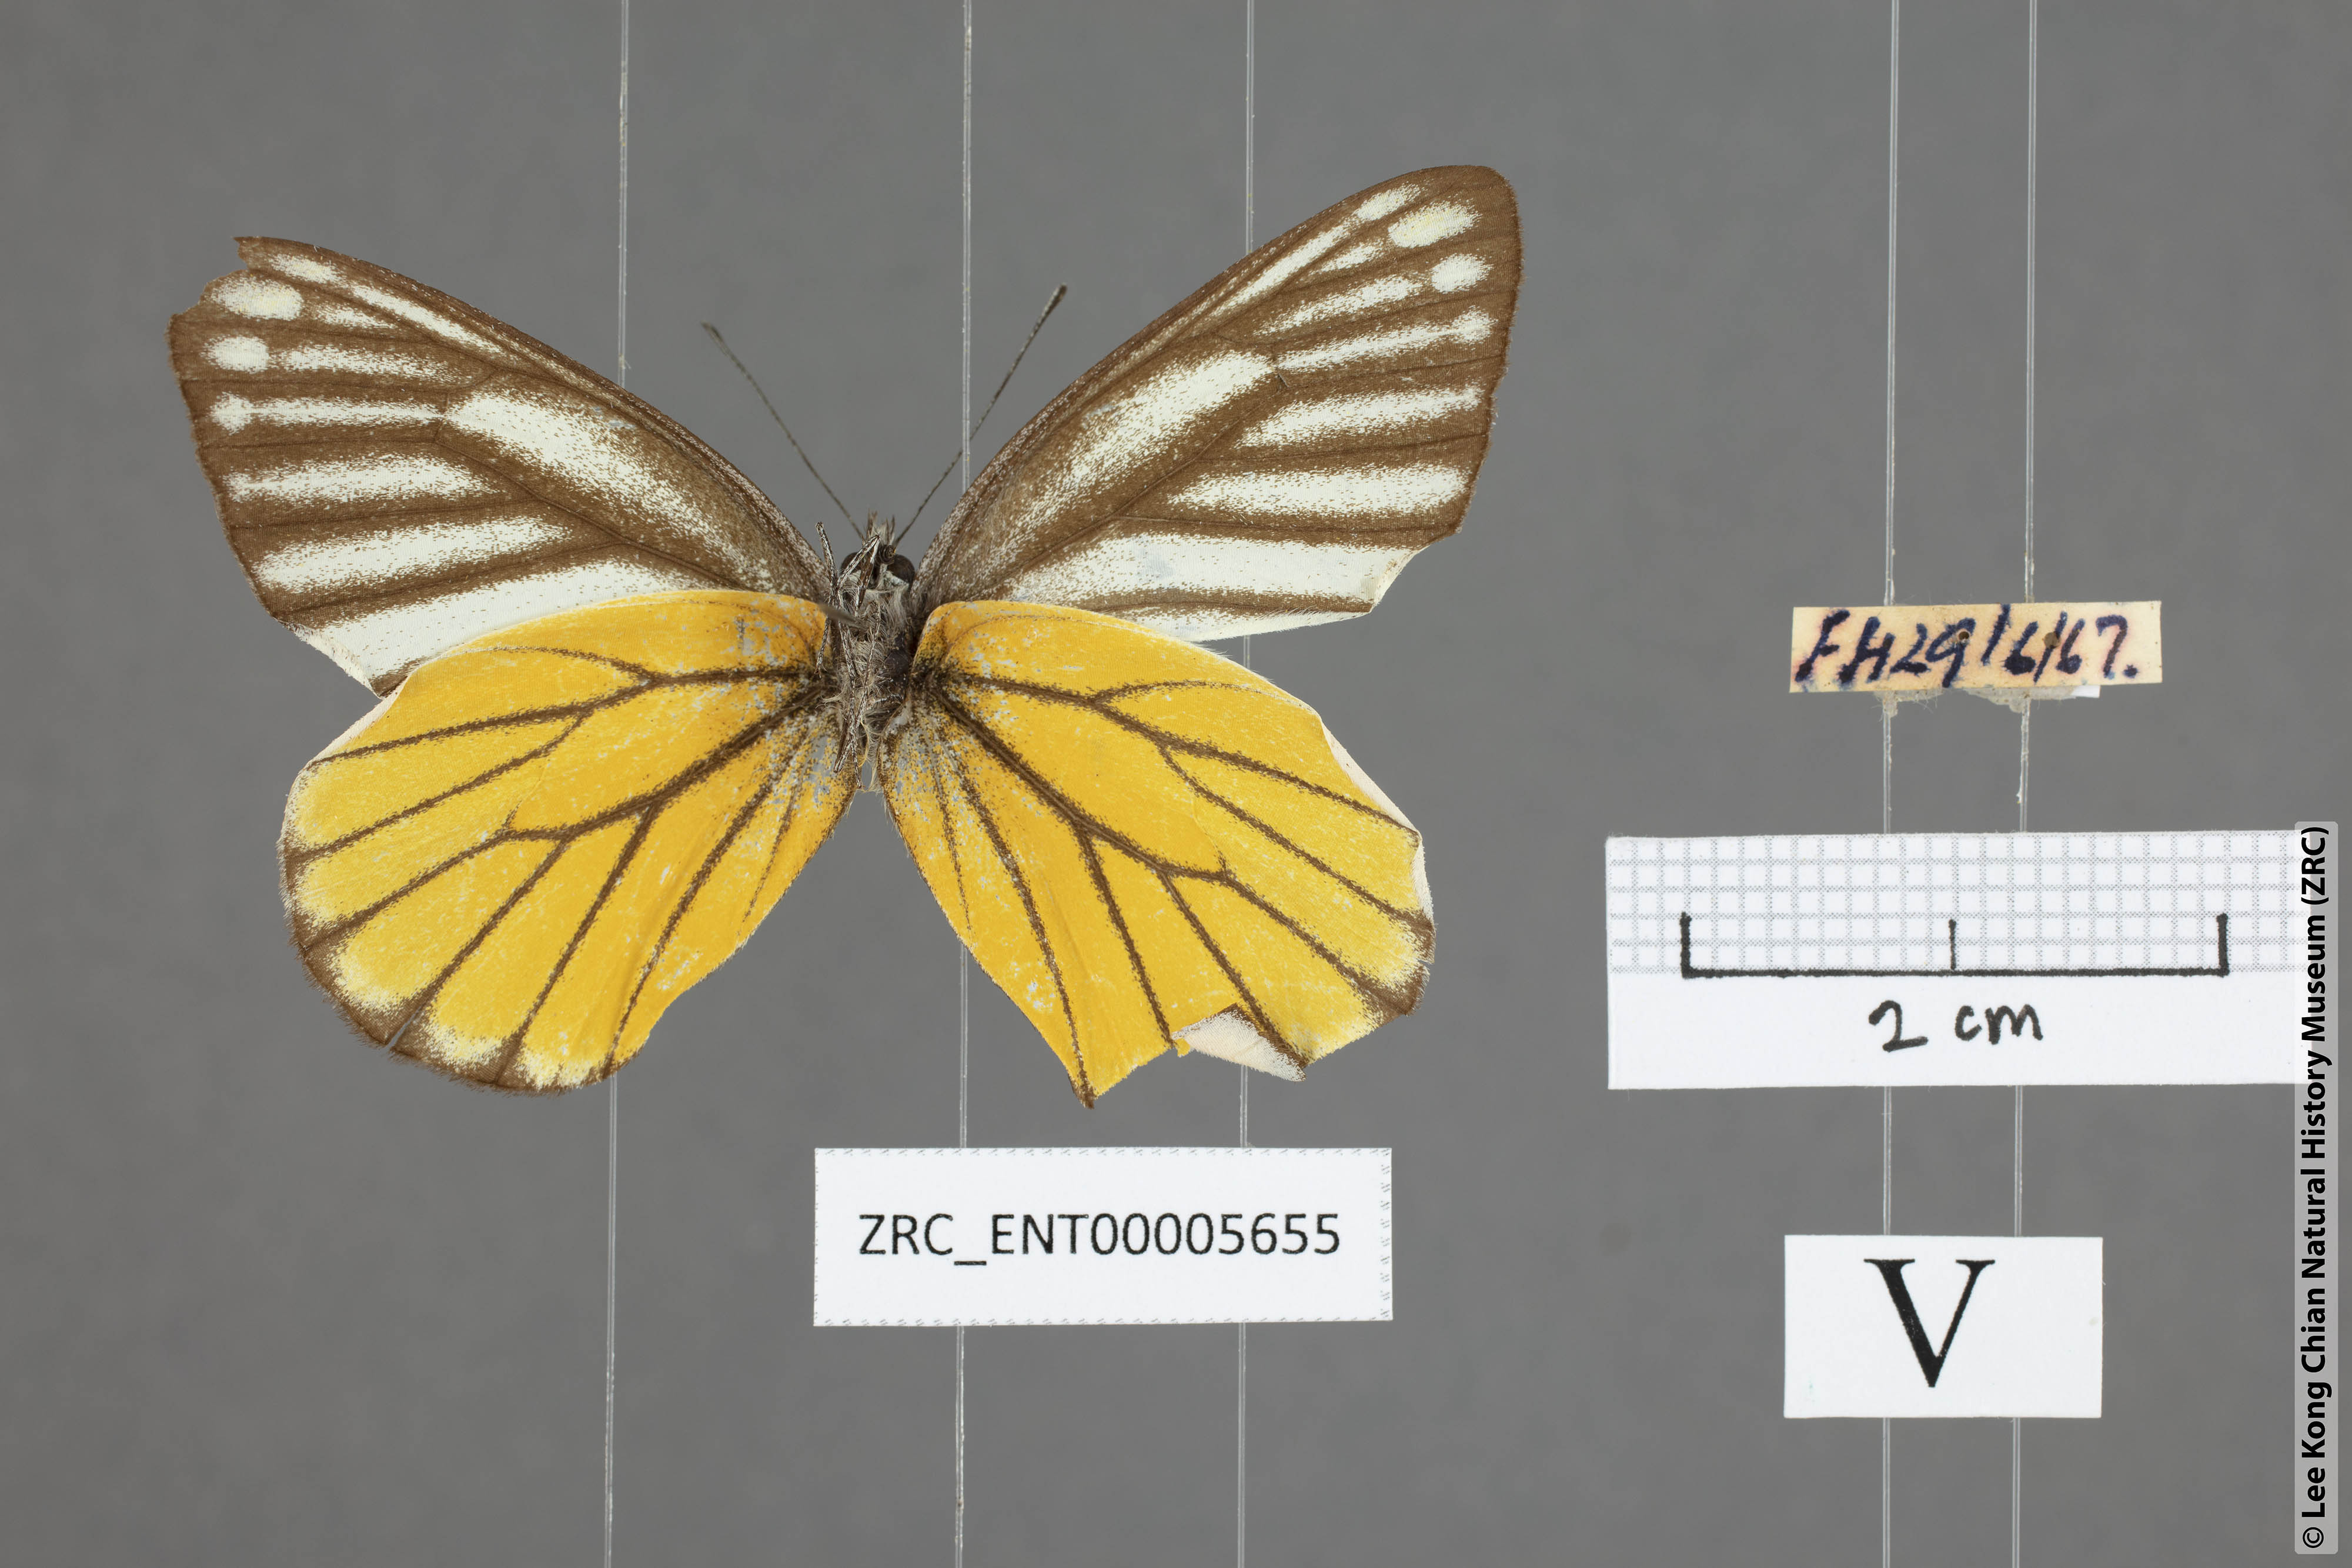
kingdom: Animalia
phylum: Arthropoda
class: Insecta
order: Lepidoptera
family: Pieridae
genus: Delias
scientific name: Delias baracasa
